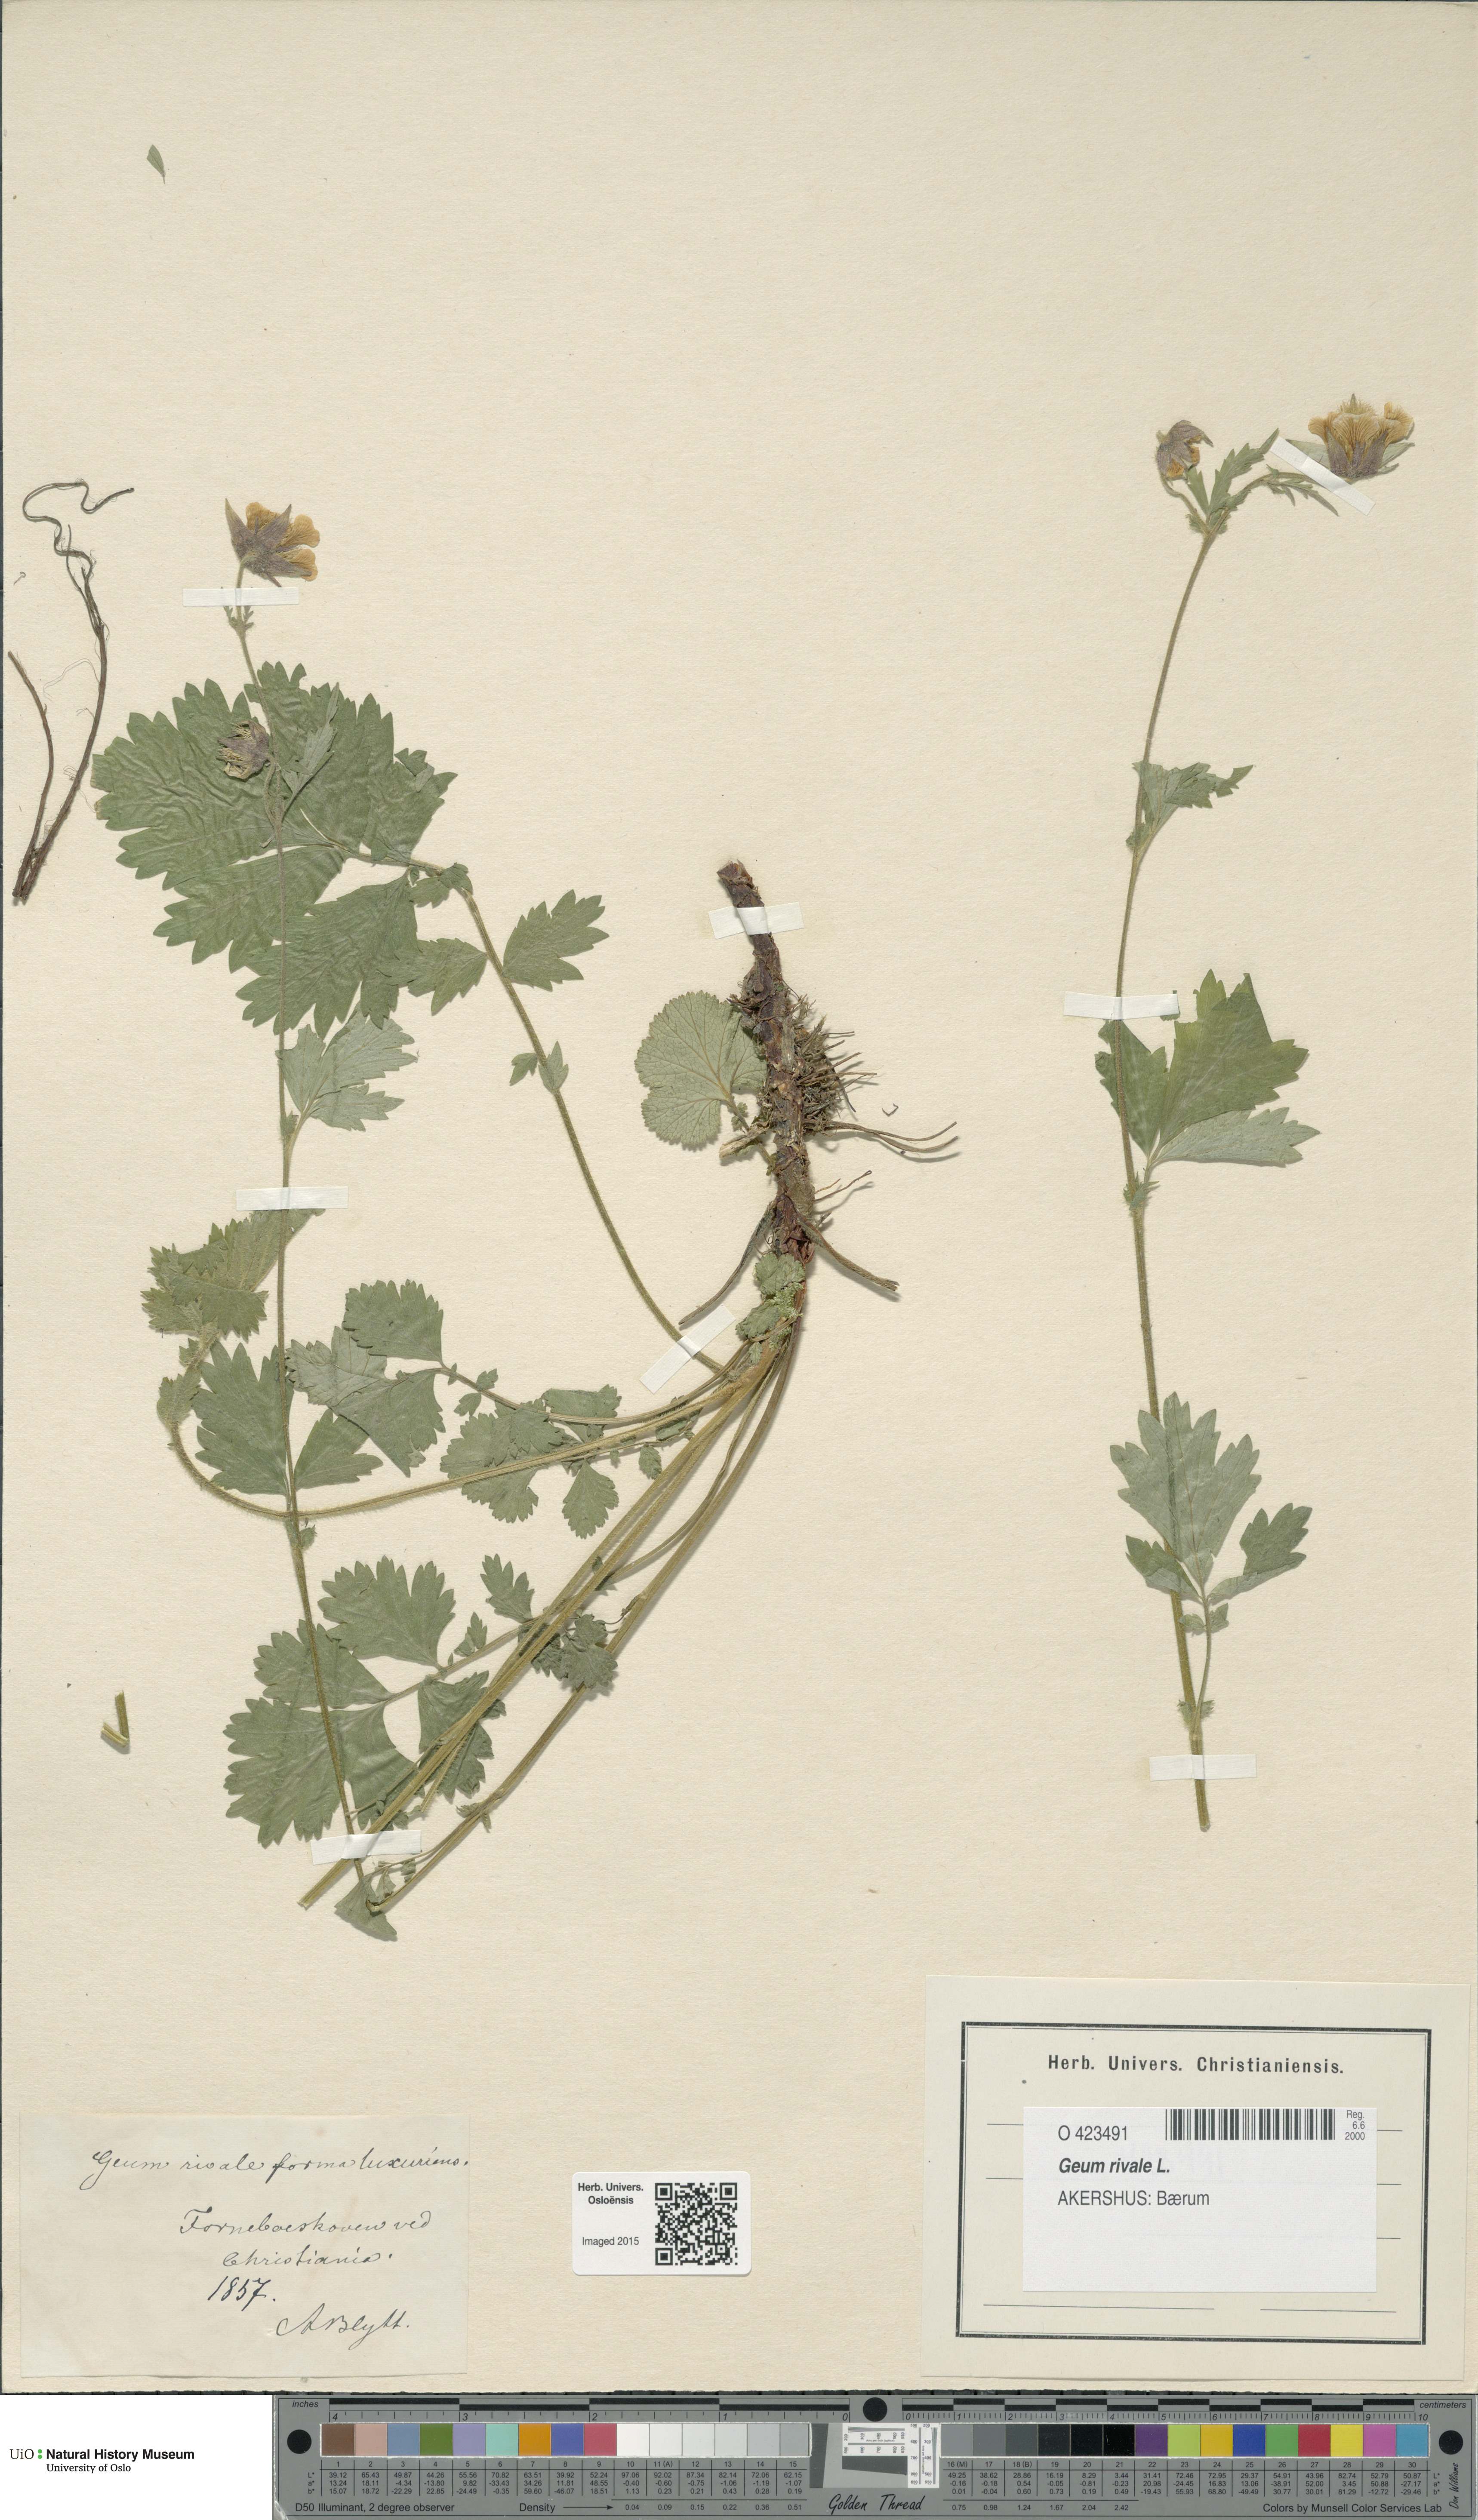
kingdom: Plantae
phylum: Tracheophyta
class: Magnoliopsida
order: Rosales
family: Rosaceae
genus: Geum
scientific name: Geum rivale
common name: Water avens
